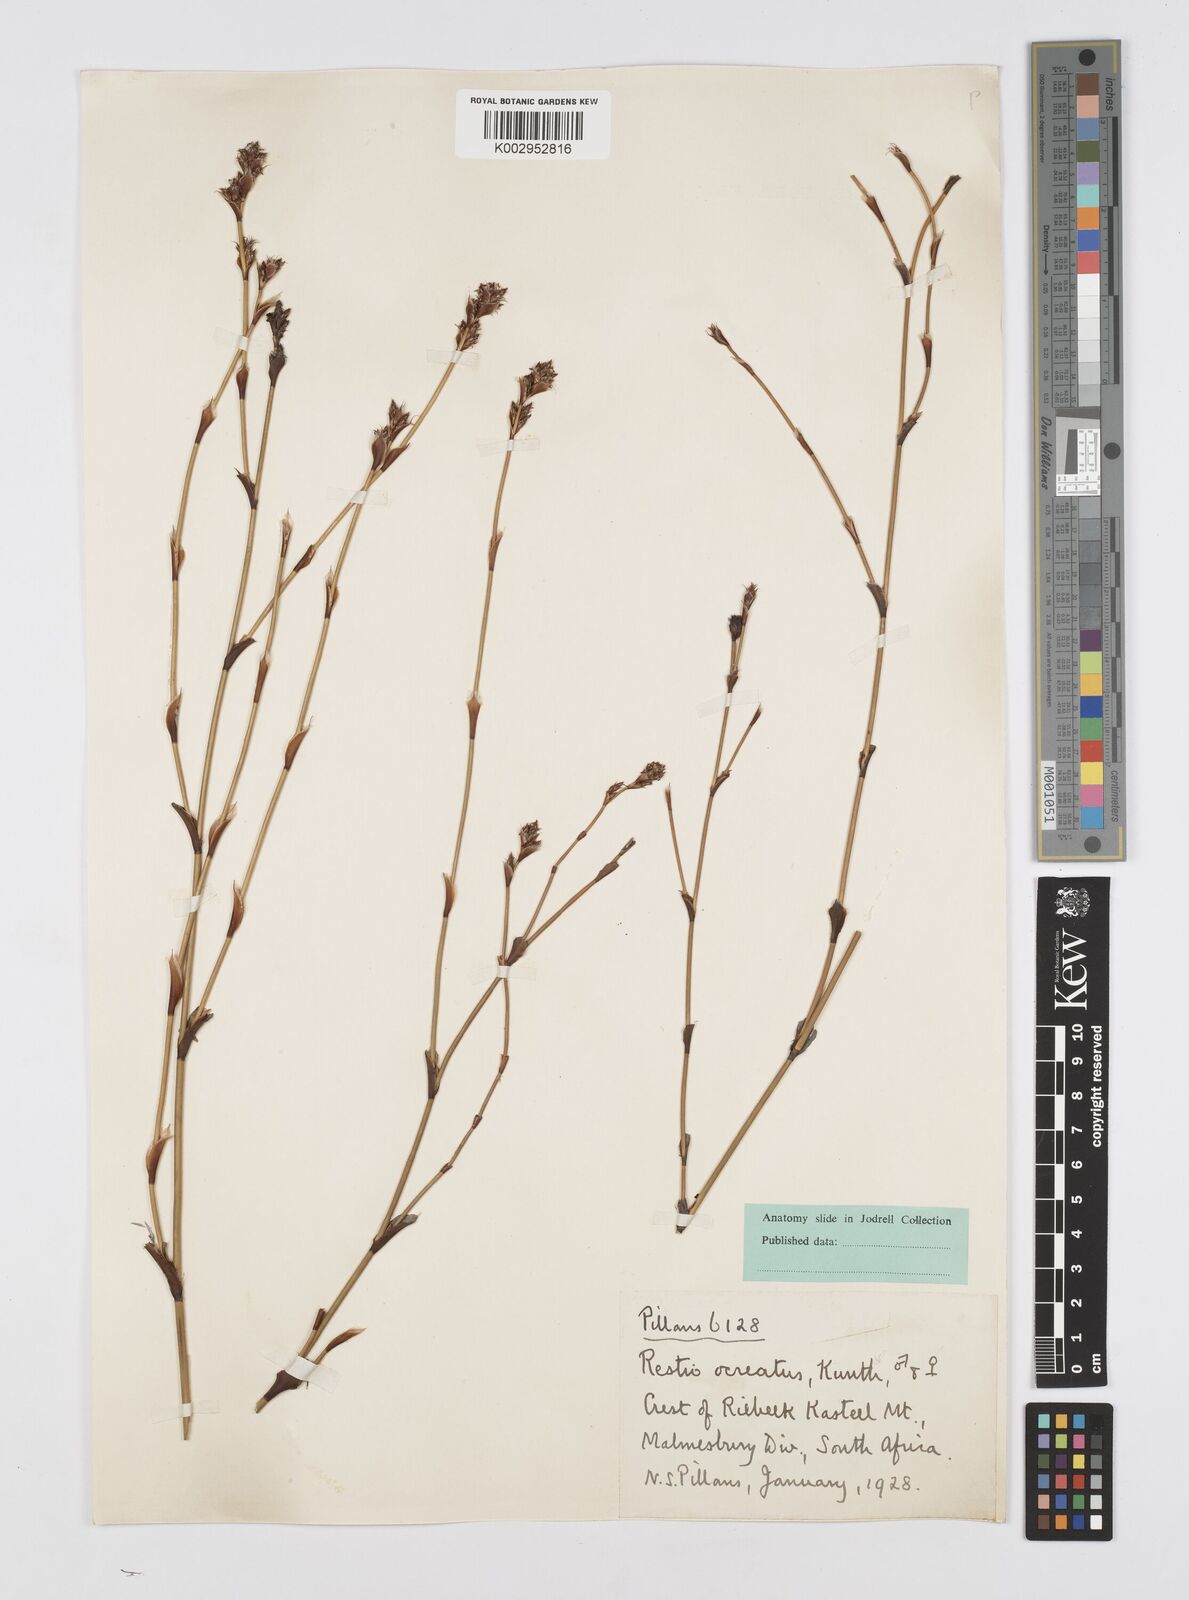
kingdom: Plantae
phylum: Tracheophyta
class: Liliopsida
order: Poales
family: Restionaceae
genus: Restio
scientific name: Restio ocreatus
